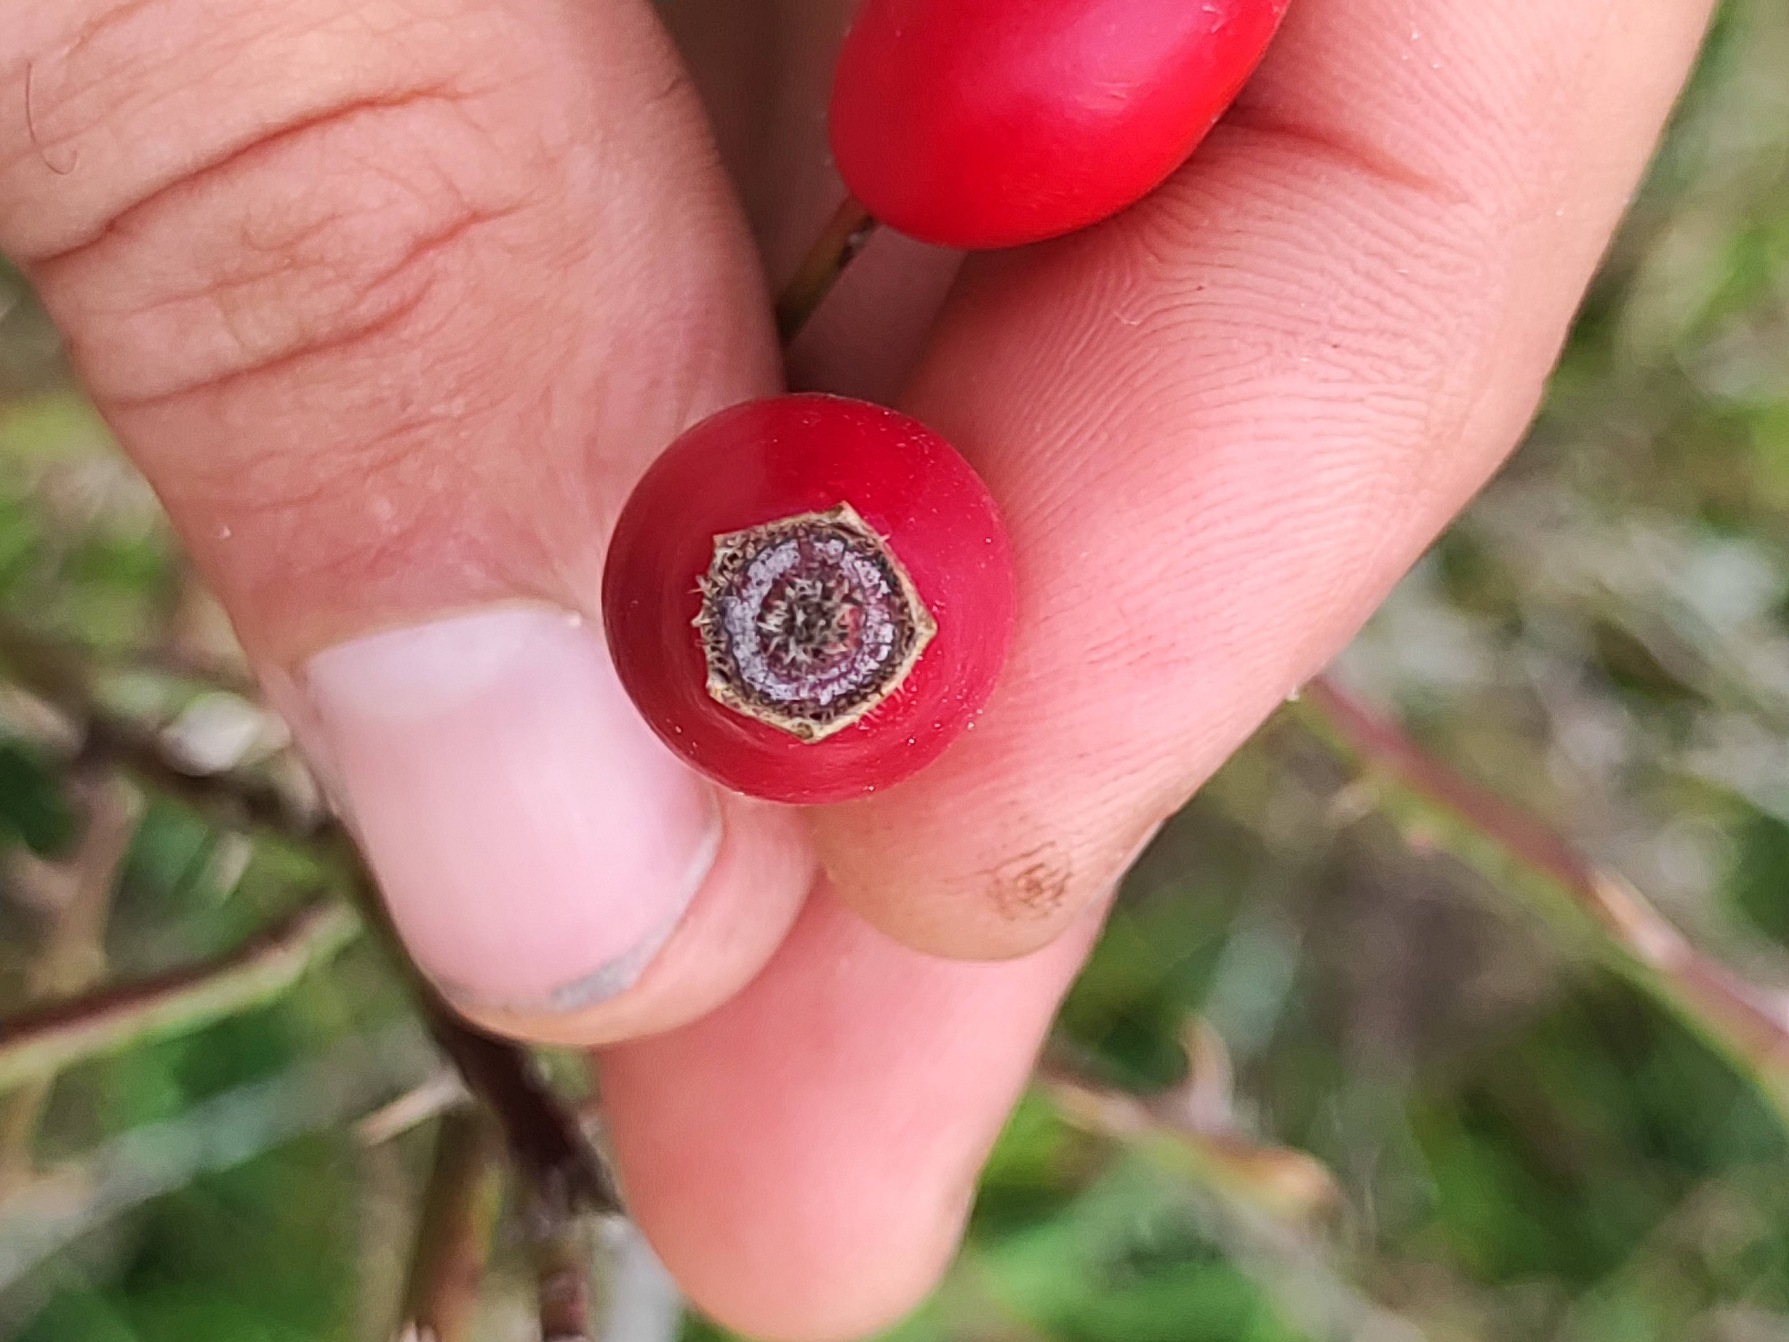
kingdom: Plantae
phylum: Tracheophyta
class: Magnoliopsida
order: Rosales
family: Rosaceae
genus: Rosa
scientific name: Rosa canina
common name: Glat hunde-rose
